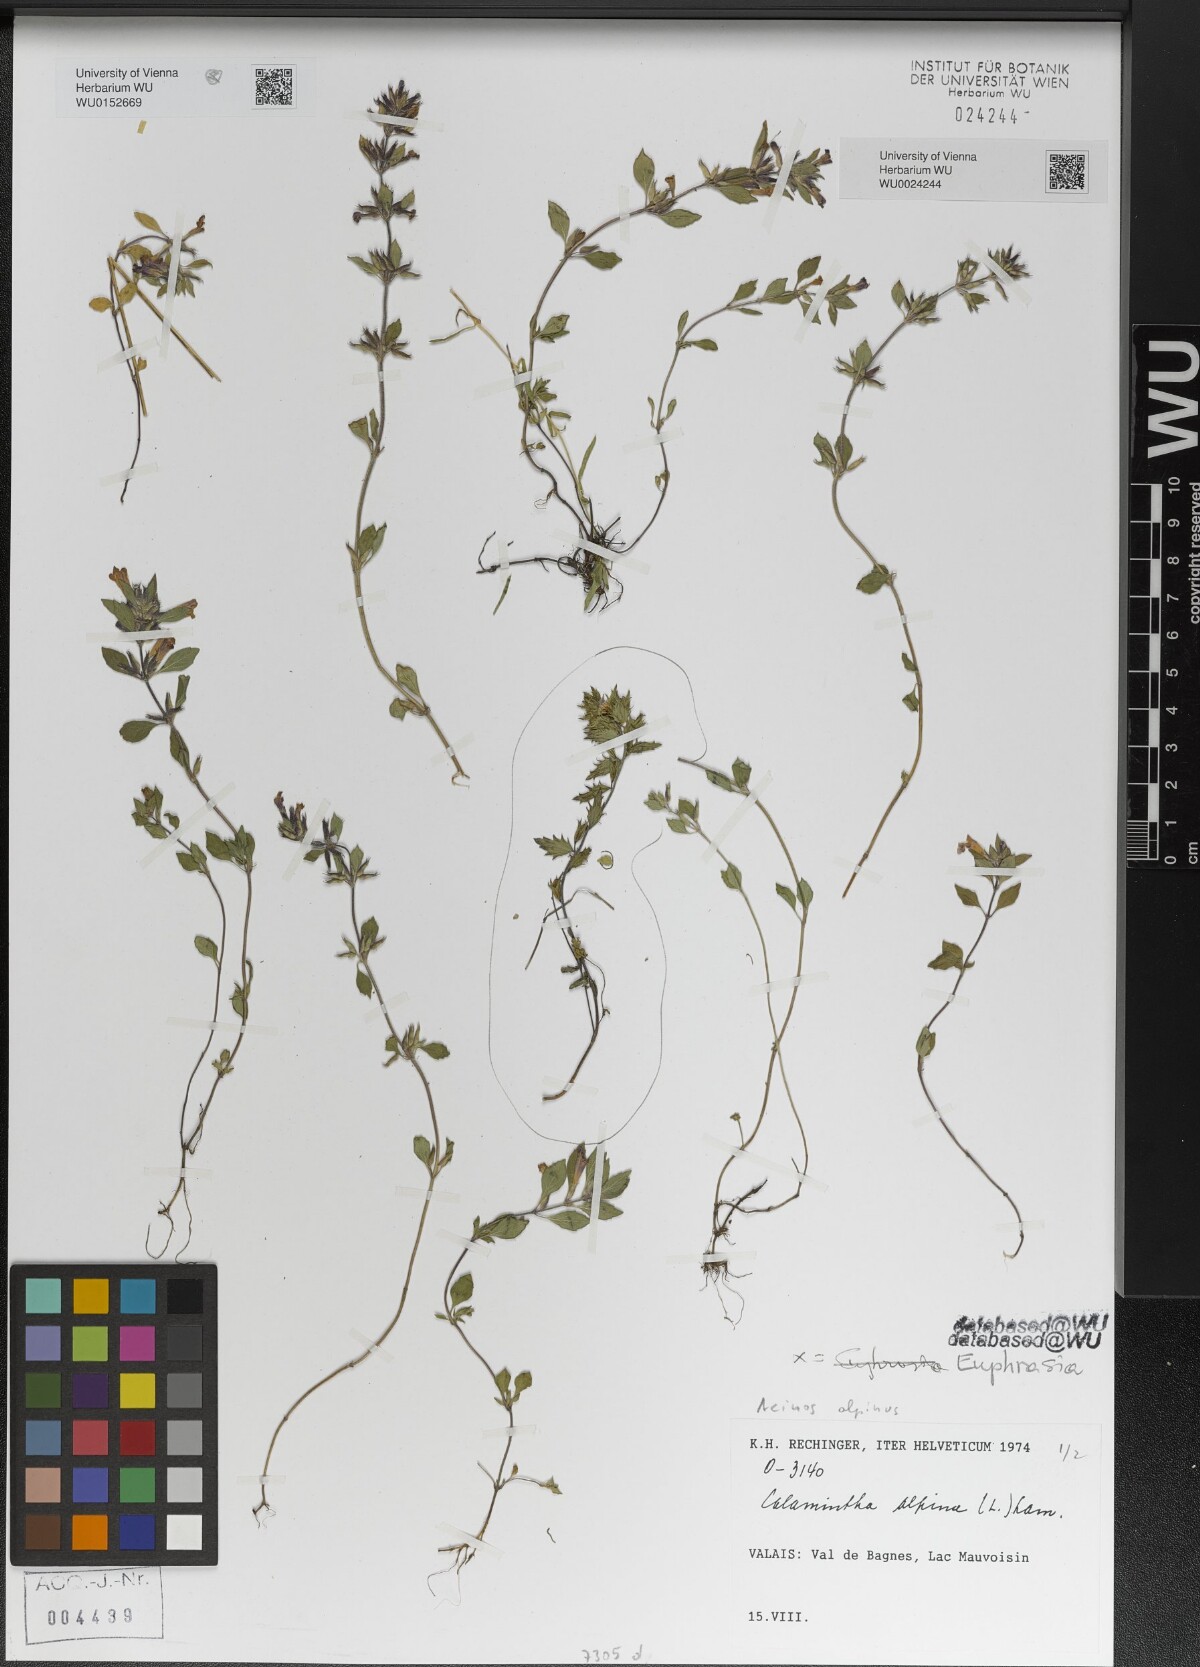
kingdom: Plantae
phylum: Tracheophyta
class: Magnoliopsida
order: Lamiales
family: Orobanchaceae
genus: Euphrasia
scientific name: Euphrasia
